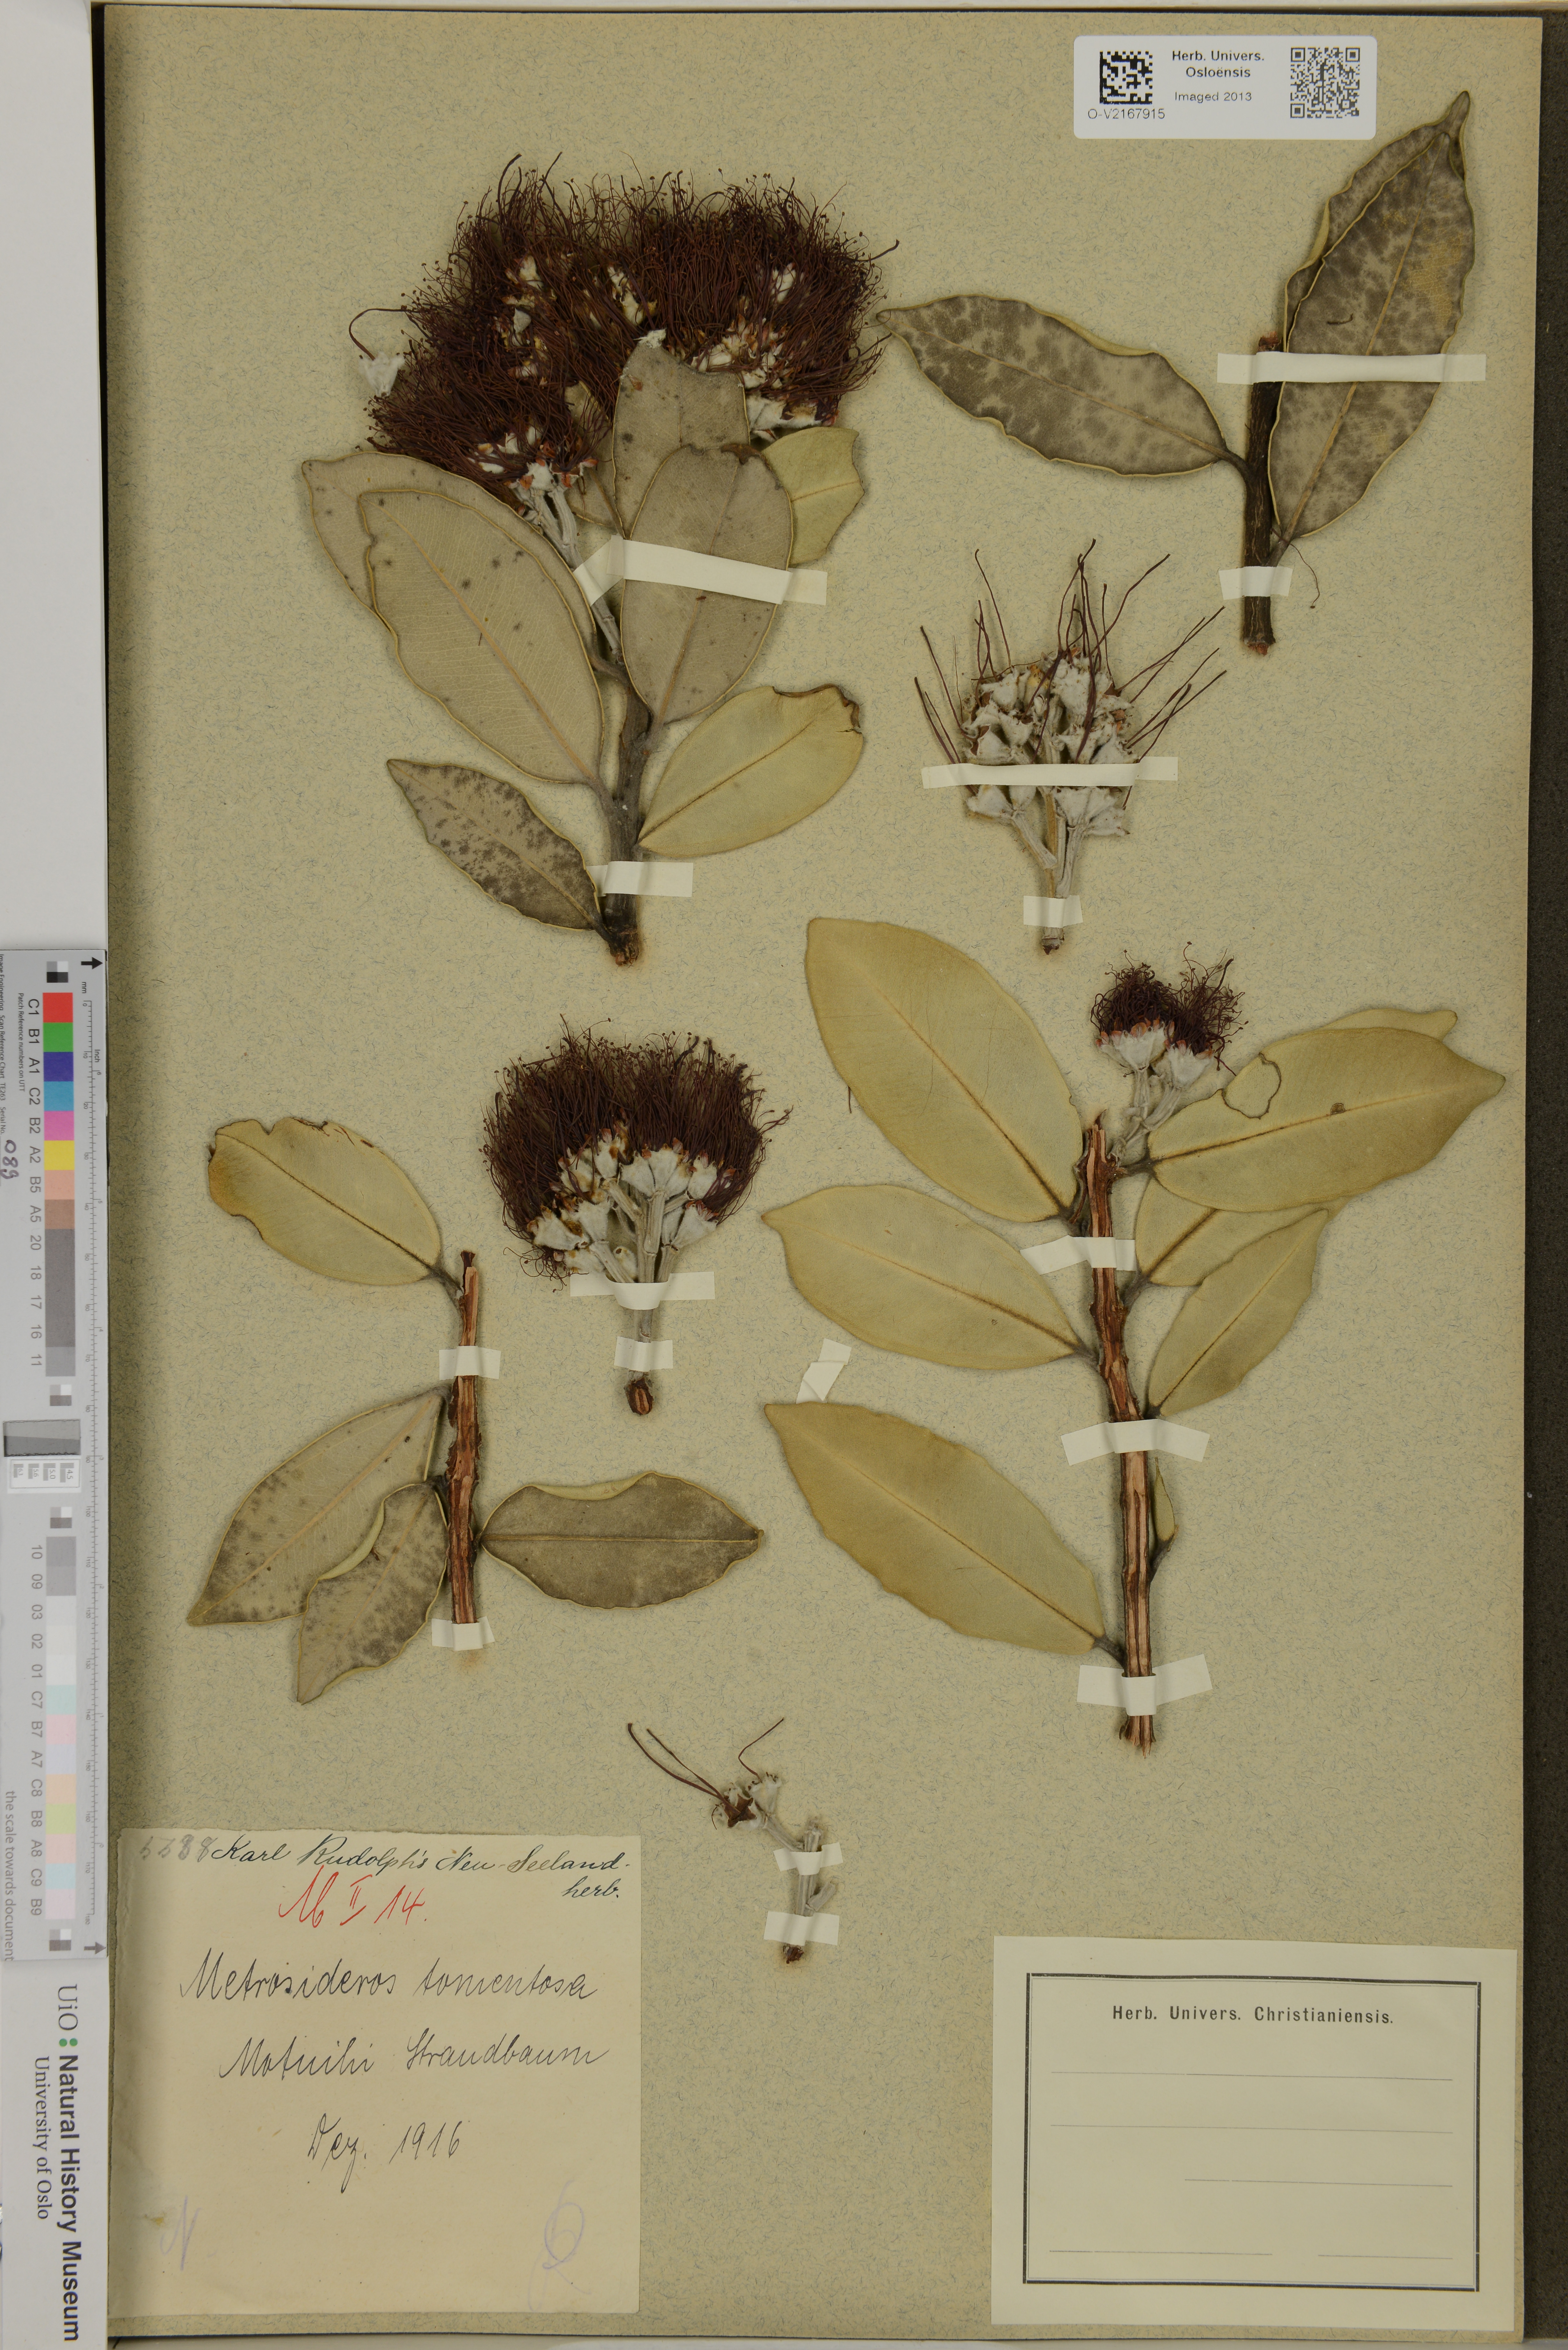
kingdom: Plantae
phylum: Tracheophyta
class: Magnoliopsida
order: Myrtales
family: Myrtaceae
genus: Metrosideros
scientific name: Metrosideros excelsa
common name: New zealand christmastree
